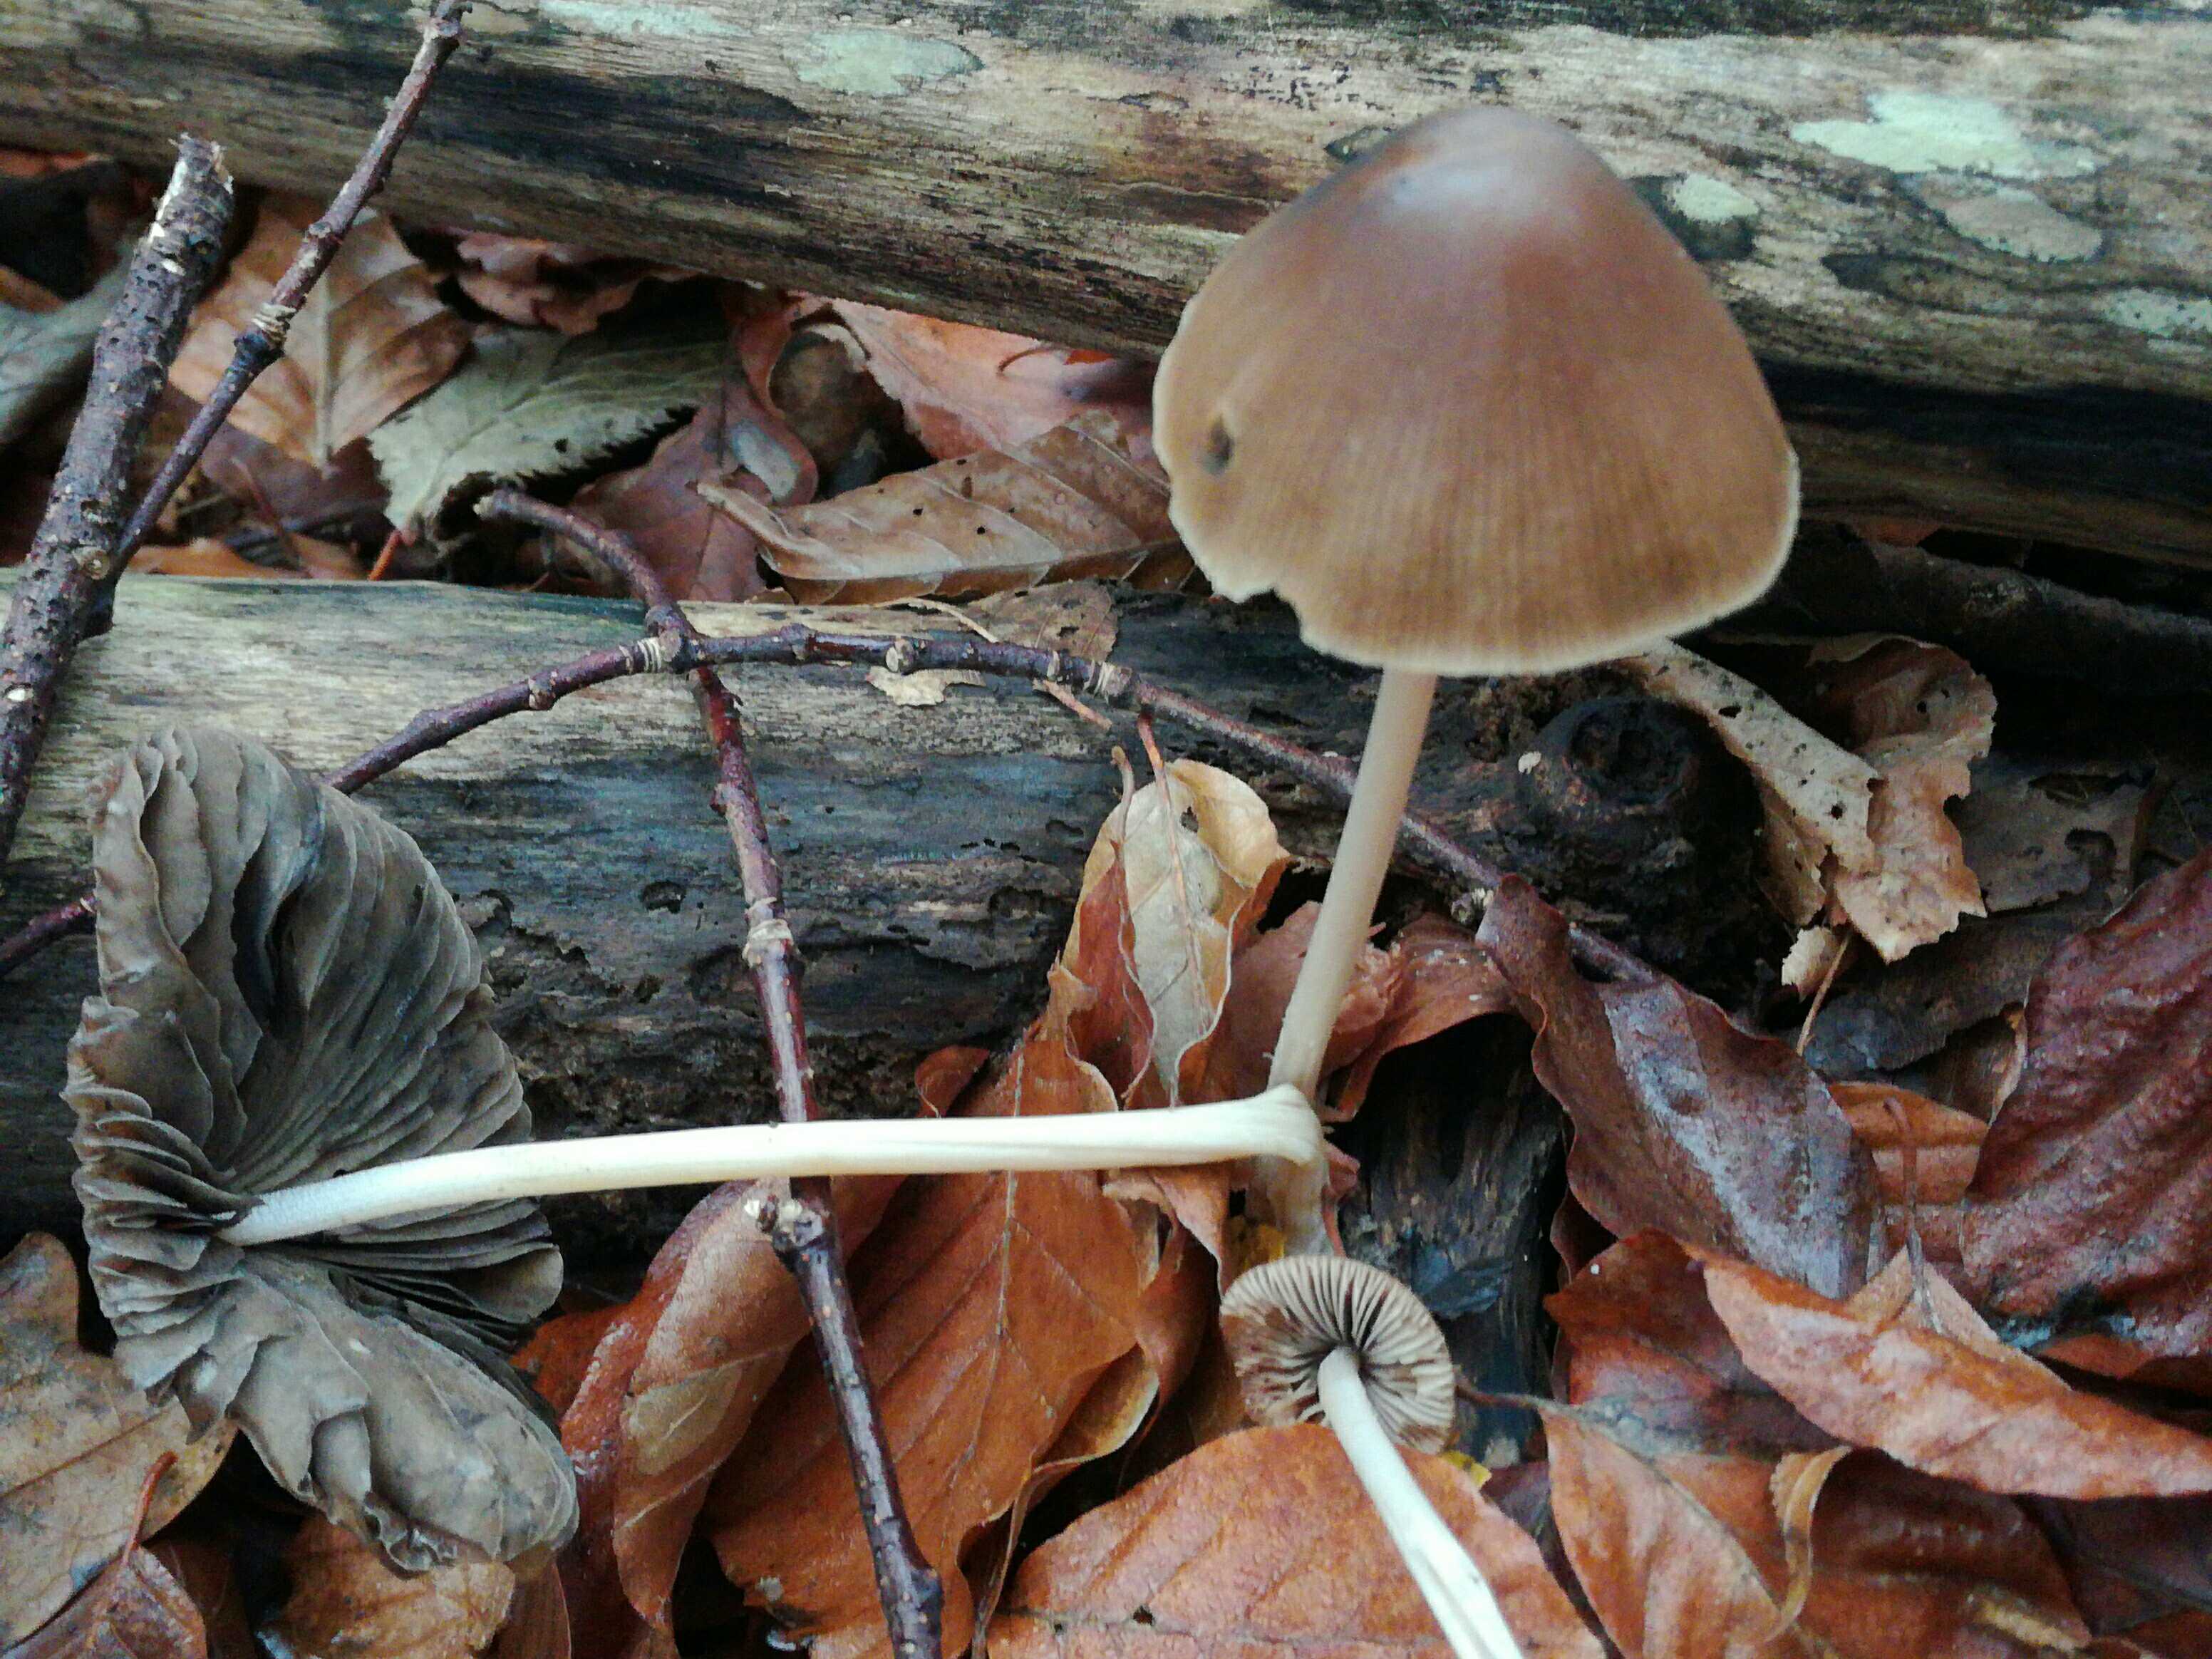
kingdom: Fungi
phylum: Basidiomycota
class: Agaricomycetes
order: Agaricales
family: Psathyrellaceae
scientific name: Psathyrellaceae
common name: mørkhatfamilien
